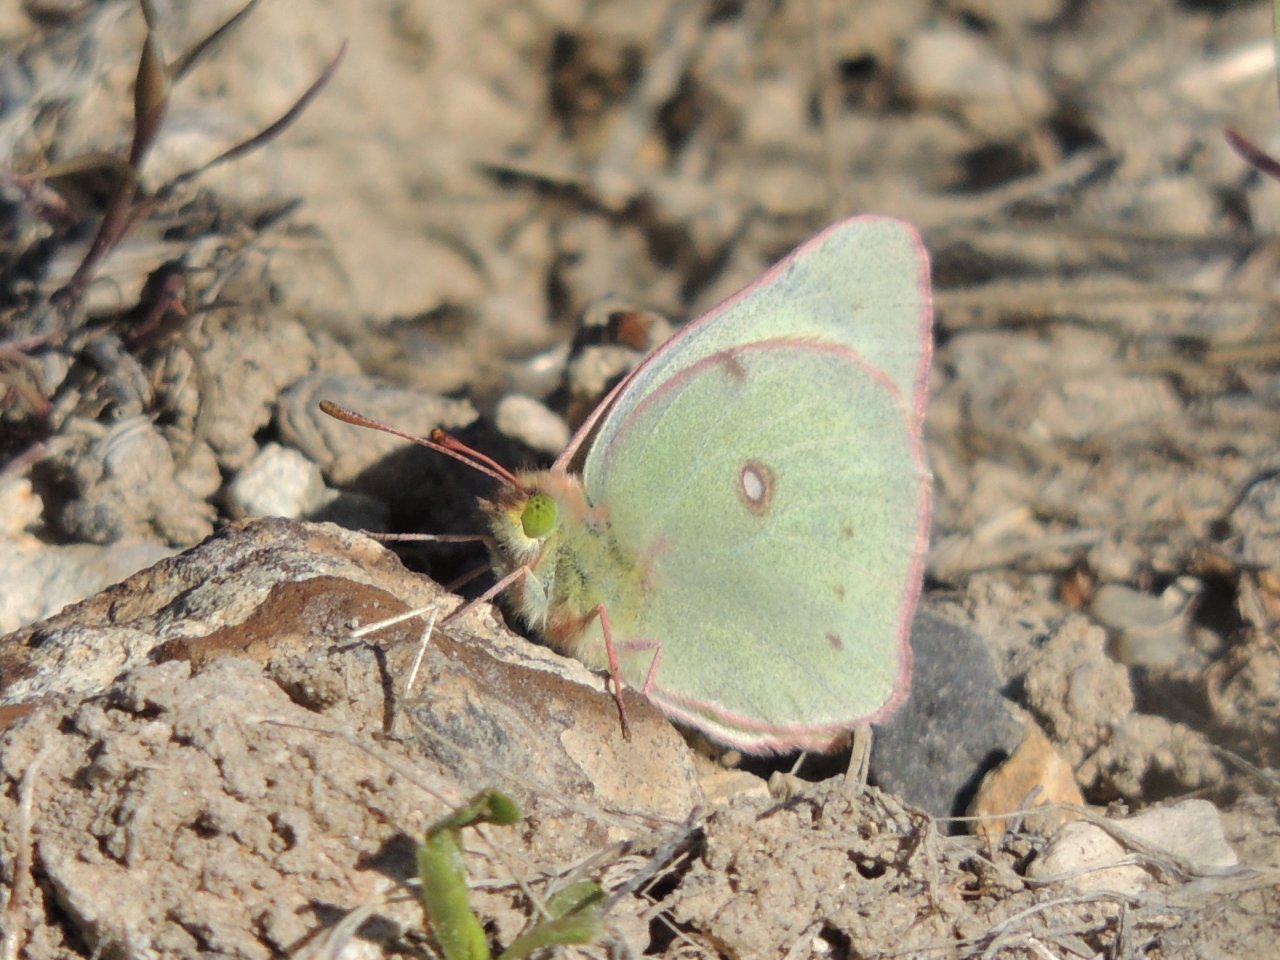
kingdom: Animalia
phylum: Arthropoda
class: Insecta
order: Lepidoptera
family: Pieridae
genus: Colias
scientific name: Colias eurytheme
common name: Orange Sulphur
